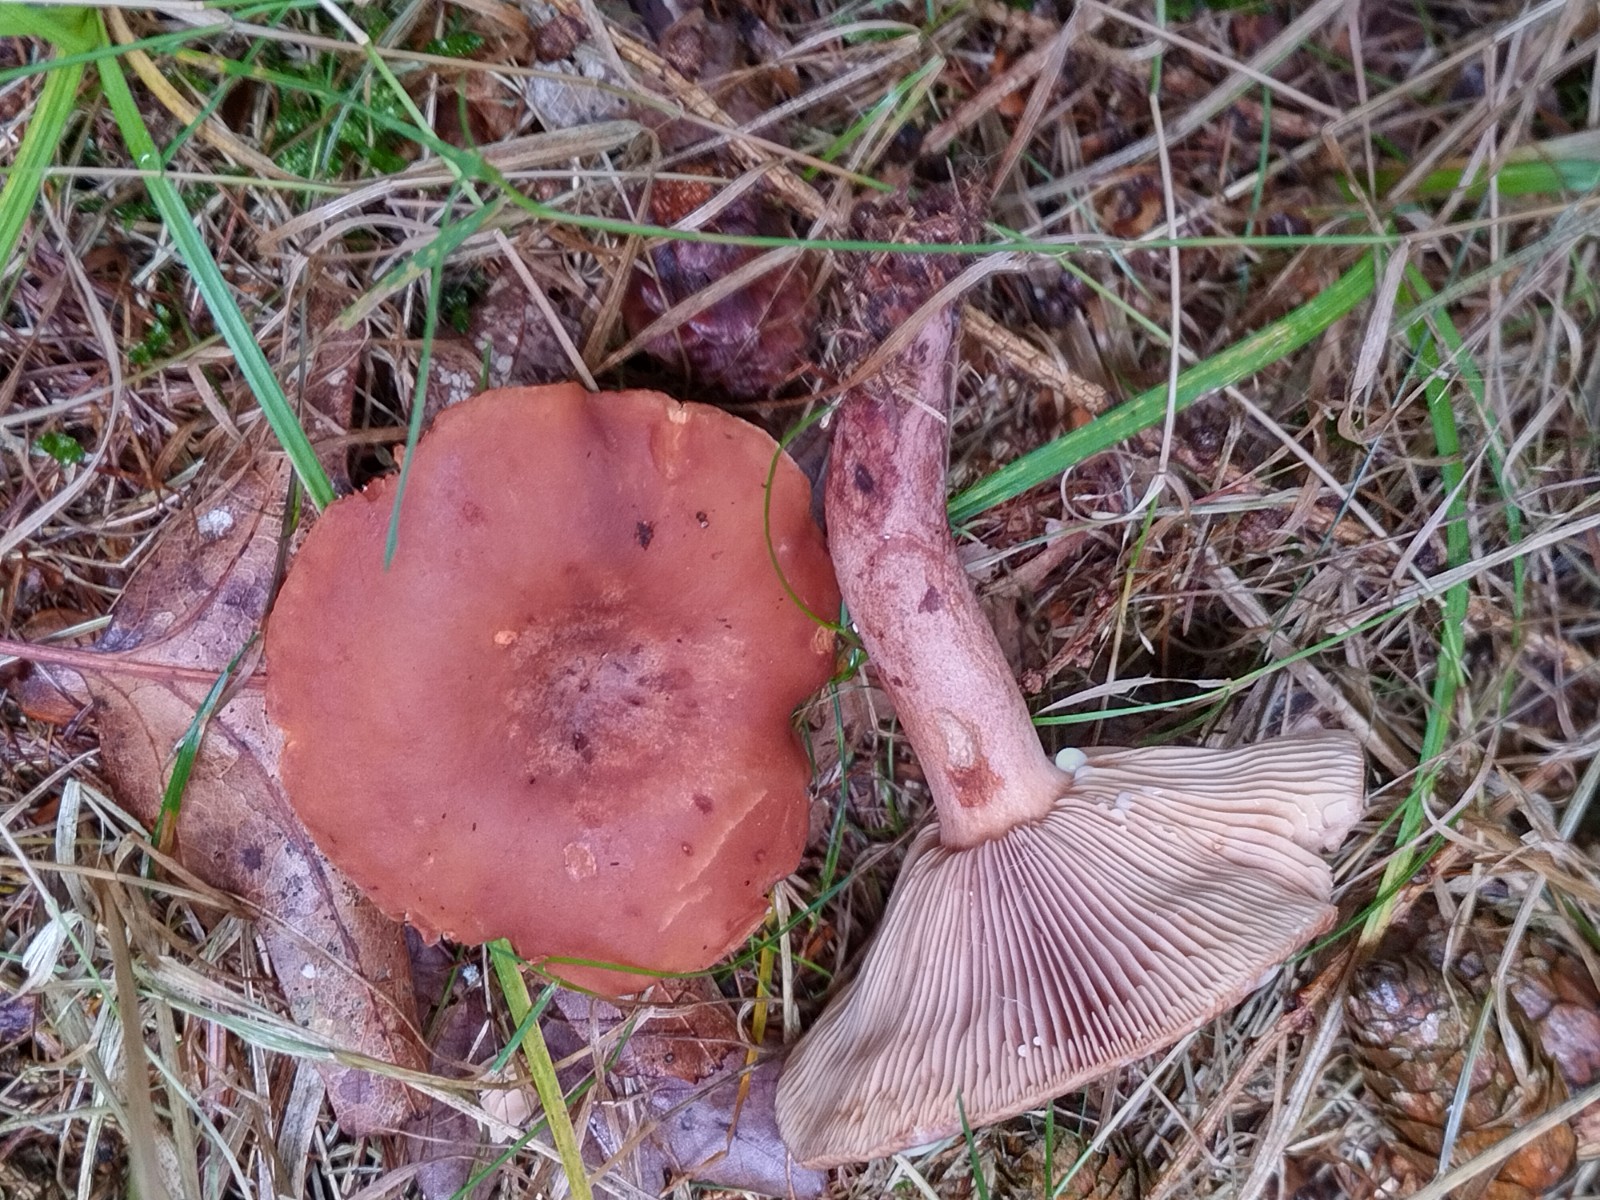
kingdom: Fungi
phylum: Basidiomycota
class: Agaricomycetes
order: Russulales
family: Russulaceae
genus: Lactarius
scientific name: Lactarius rufus
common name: rødbrun mælkehat
